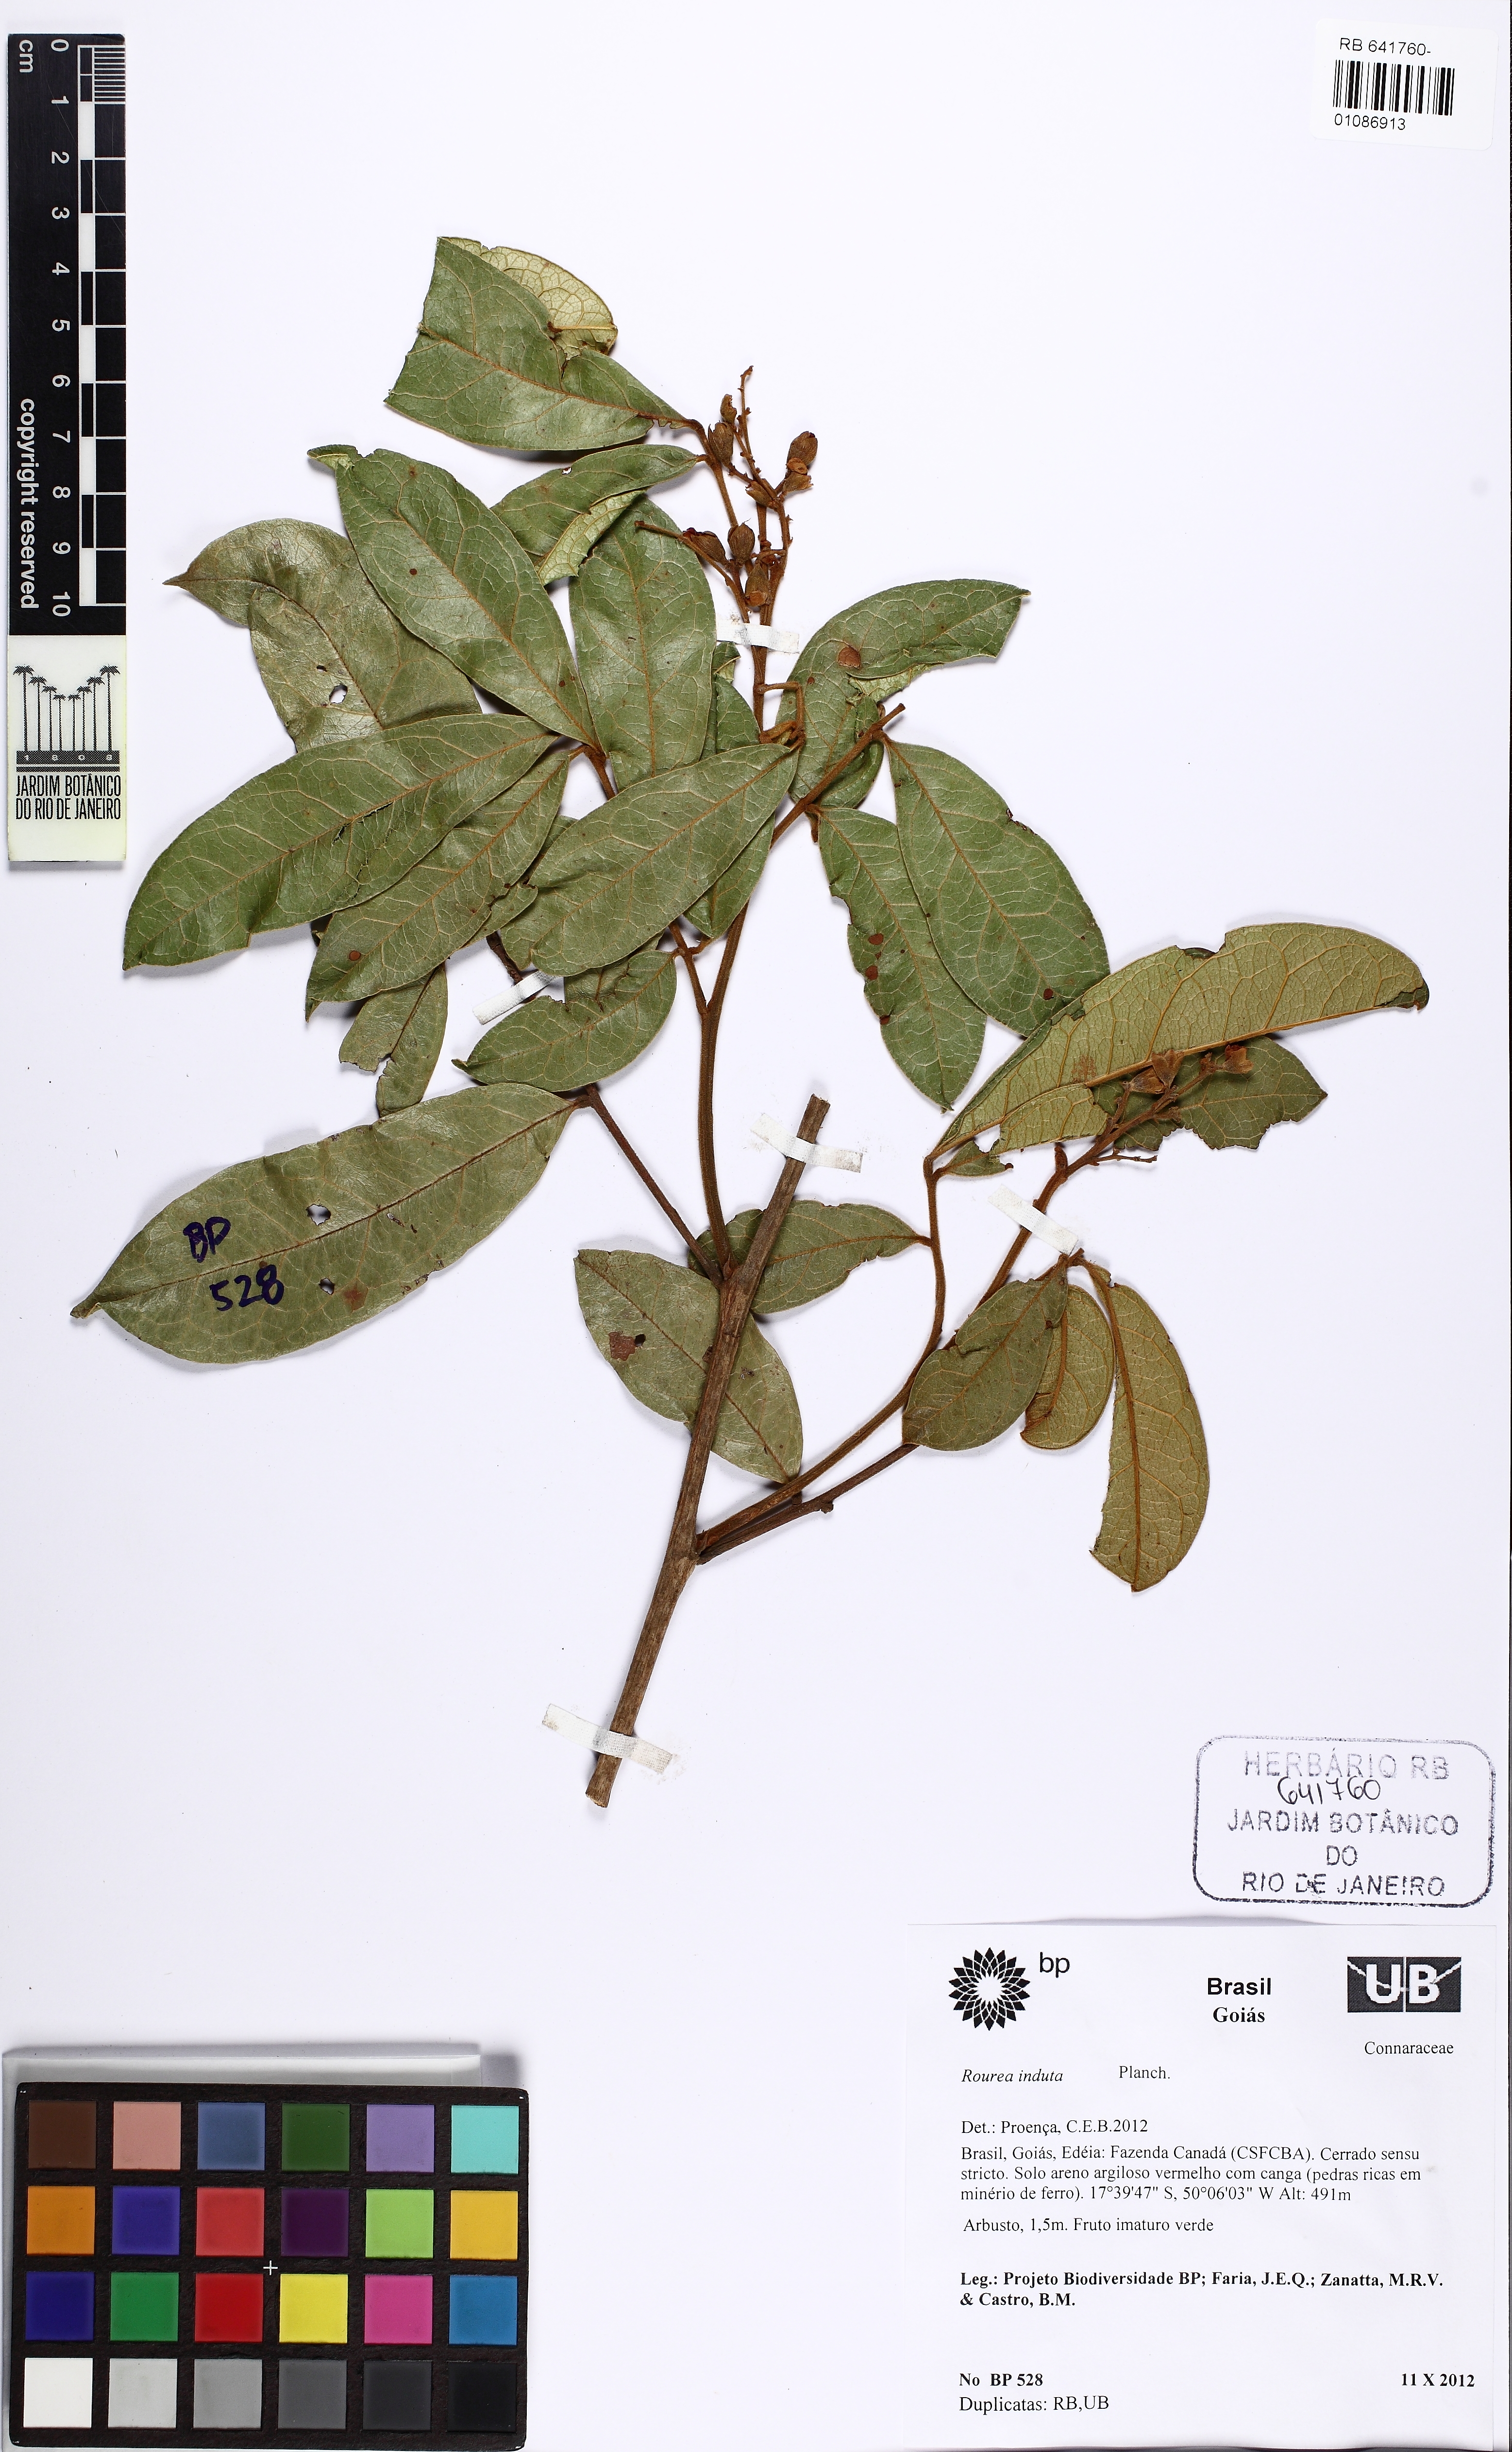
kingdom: Plantae
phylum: Tracheophyta
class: Magnoliopsida
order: Oxalidales
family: Connaraceae
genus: Rourea
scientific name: Rourea induta
